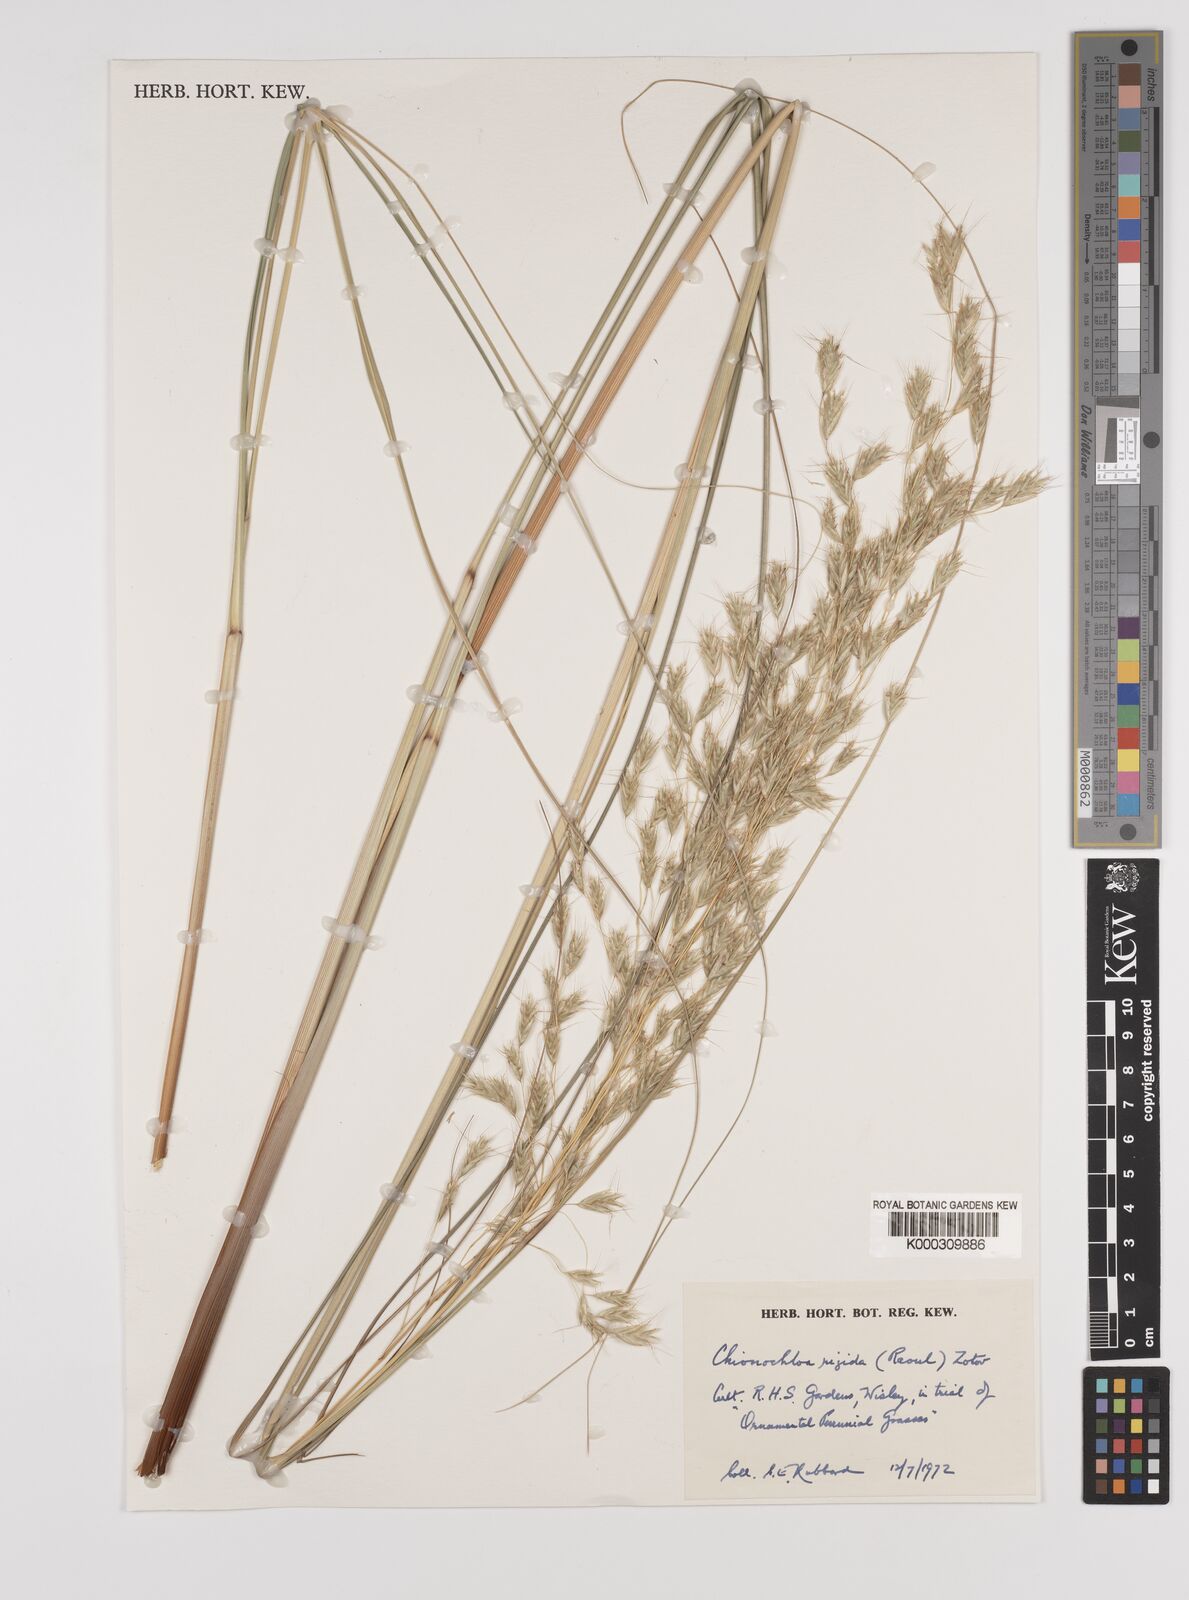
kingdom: Plantae
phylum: Tracheophyta
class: Liliopsida
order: Poales
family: Poaceae
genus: Chionochloa
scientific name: Chionochloa rigida
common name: Narrow leaved snow tussock
